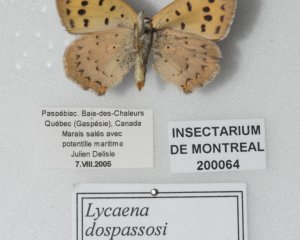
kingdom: Animalia
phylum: Arthropoda
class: Insecta
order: Lepidoptera
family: Lycaenidae
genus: Epidemia
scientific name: Epidemia dorcas
